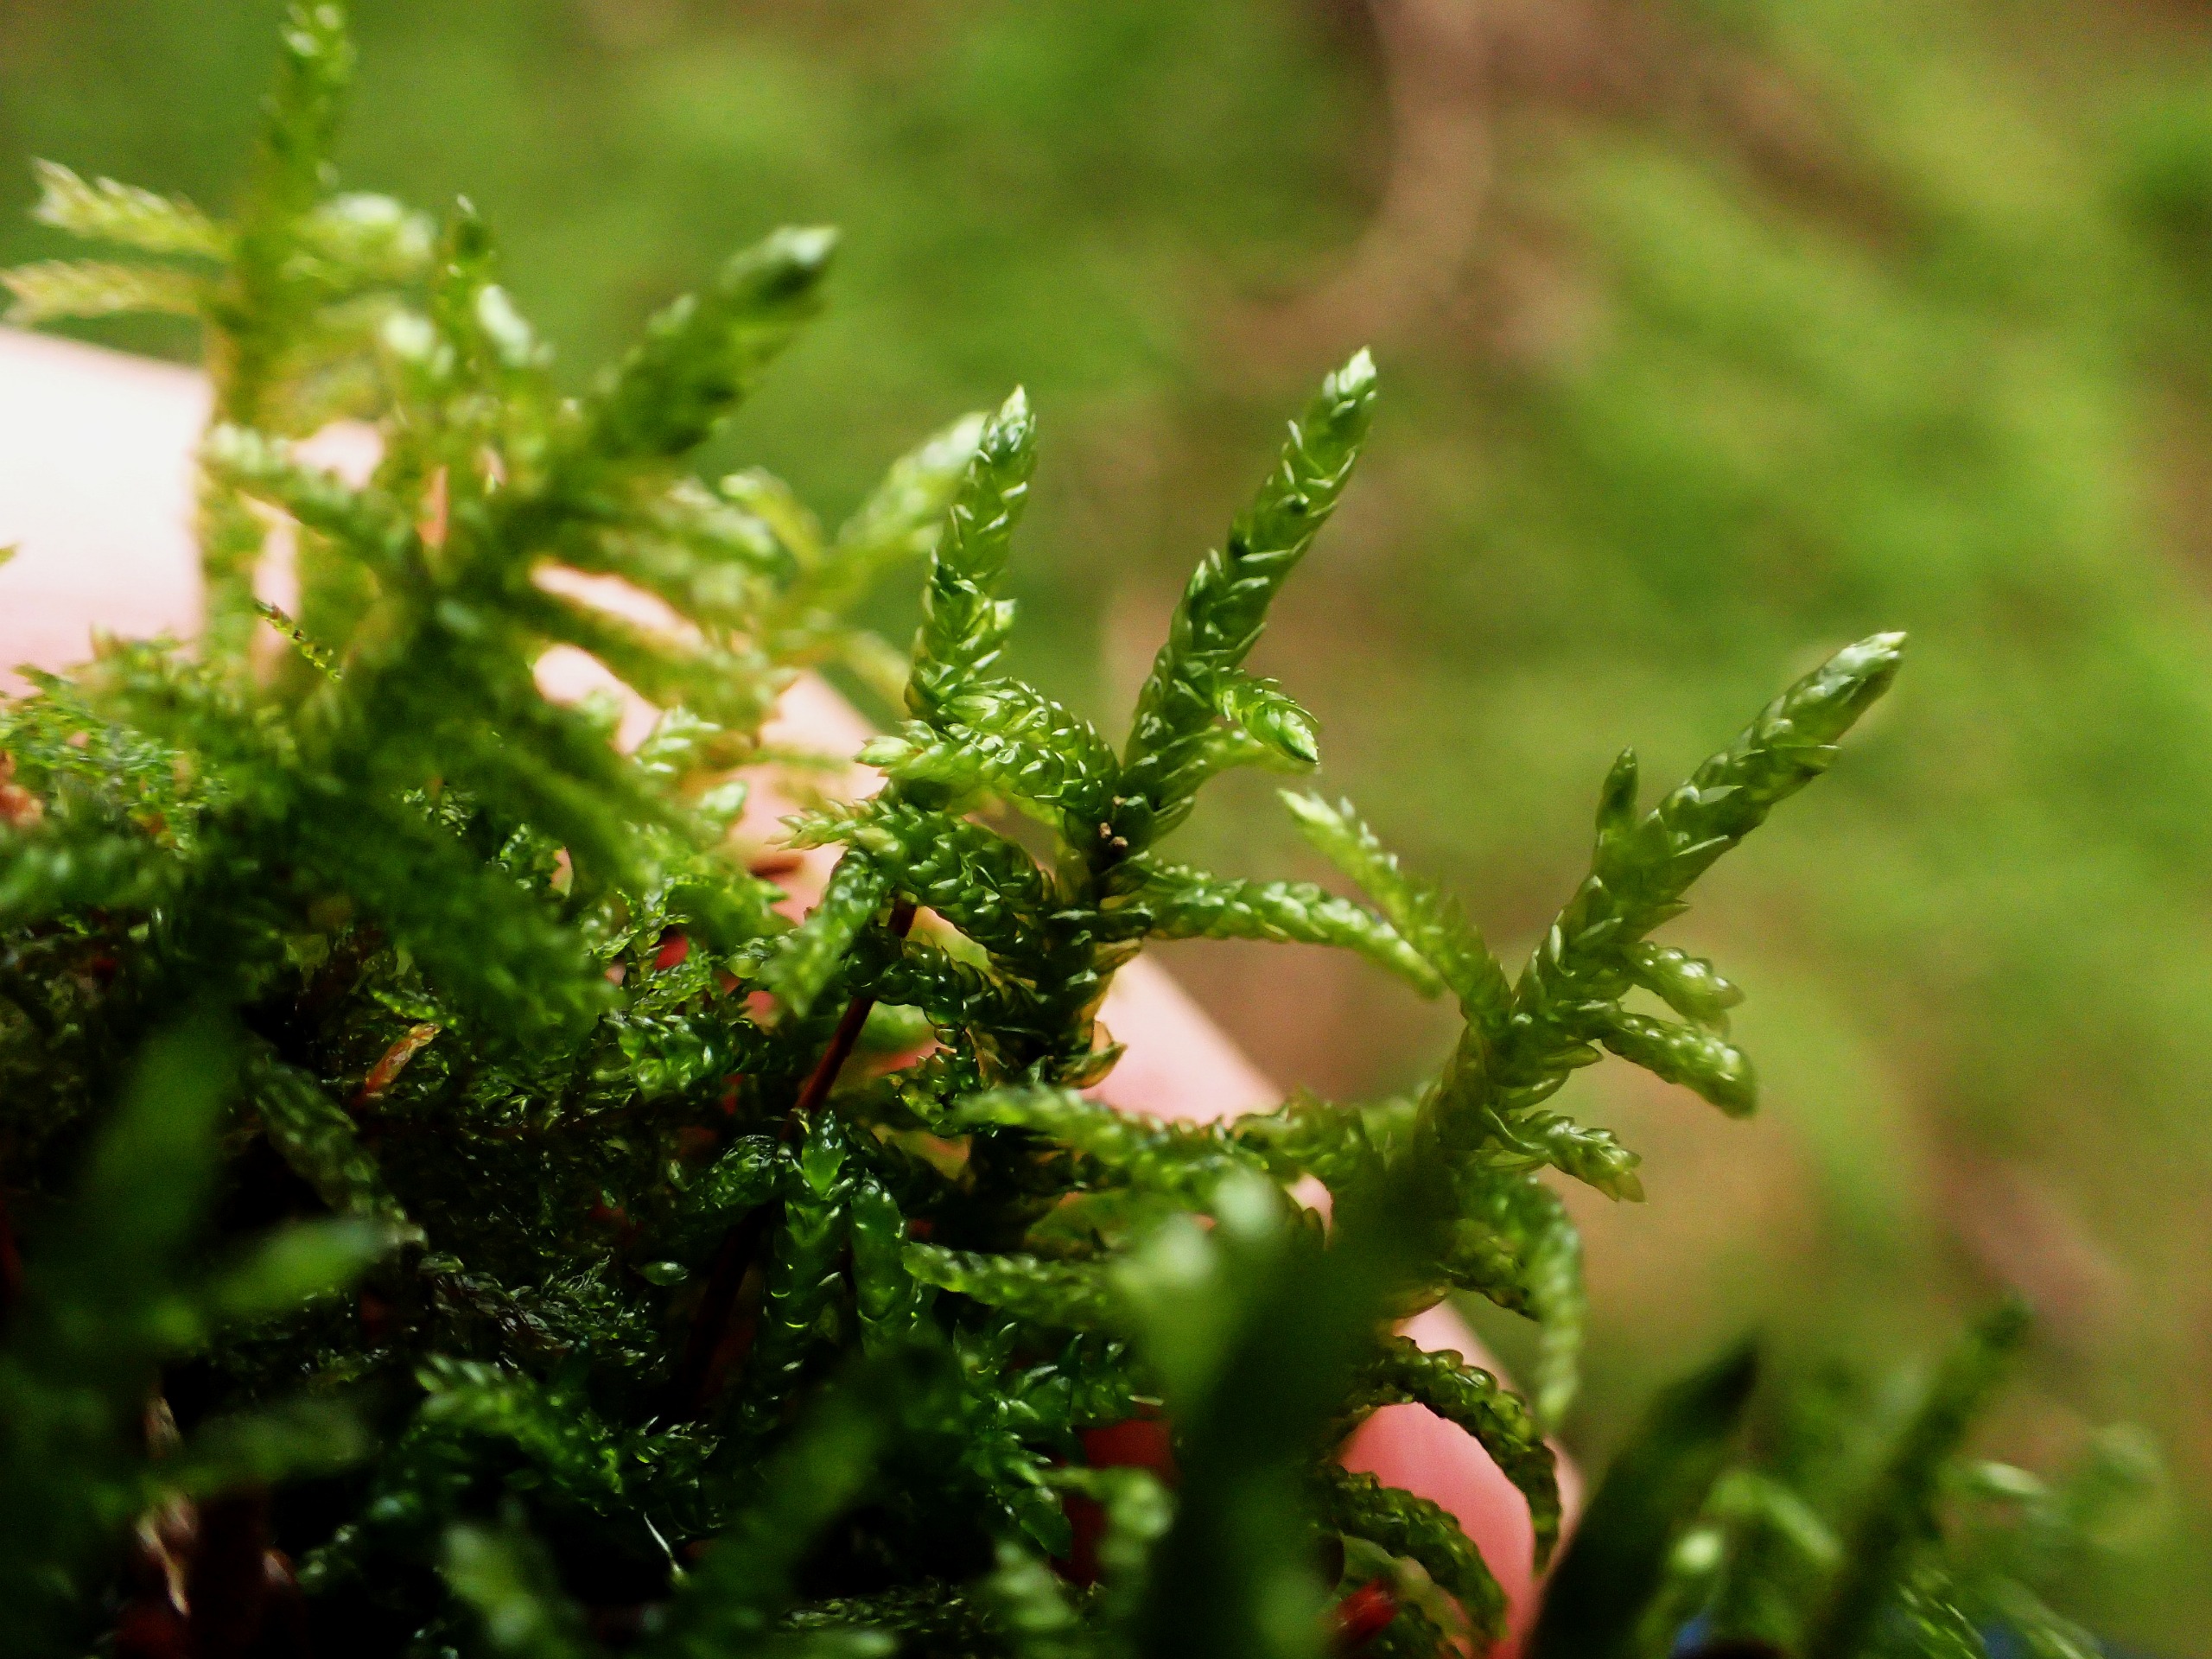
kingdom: Plantae
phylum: Bryophyta
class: Bryopsida
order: Hypnales
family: Brachytheciaceae
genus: Pseudoscleropodium
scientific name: Pseudoscleropodium purum
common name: Hulbladet fedtmos
